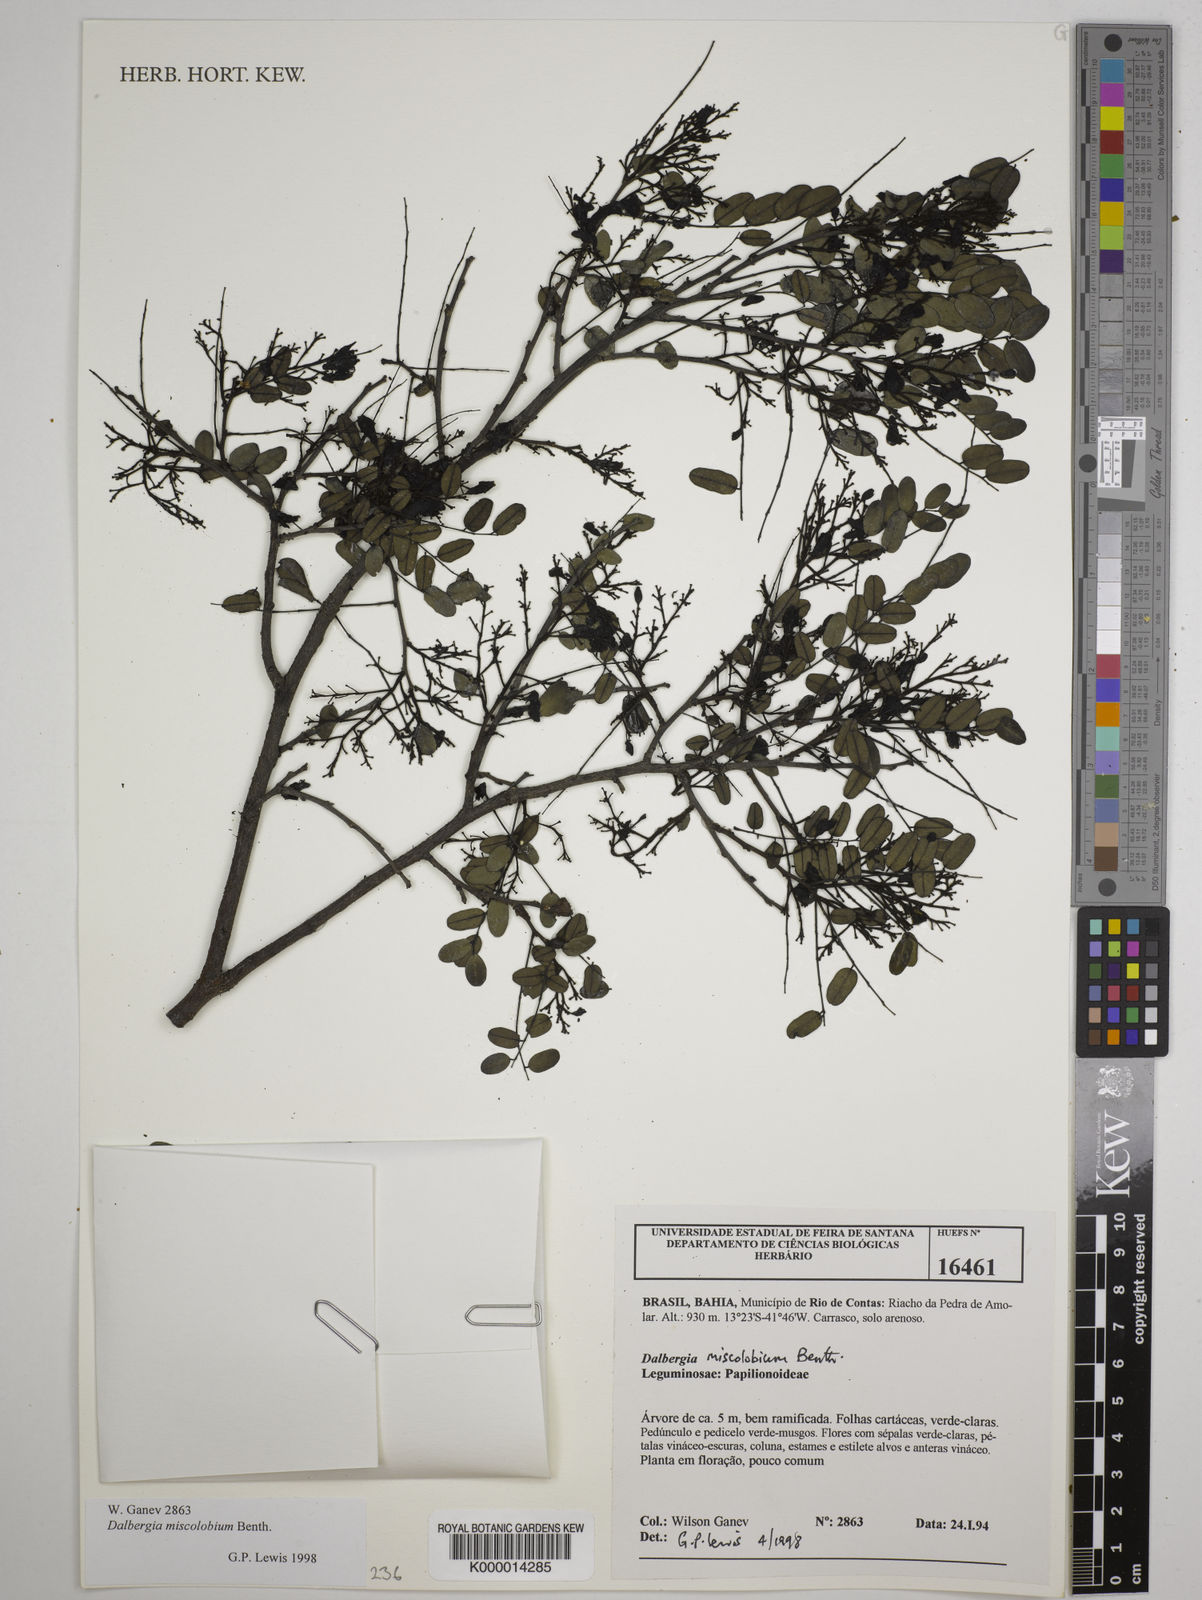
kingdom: Plantae
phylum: Tracheophyta
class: Magnoliopsida
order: Fabales
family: Fabaceae
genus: Dalbergia
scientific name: Dalbergia miscolobium
